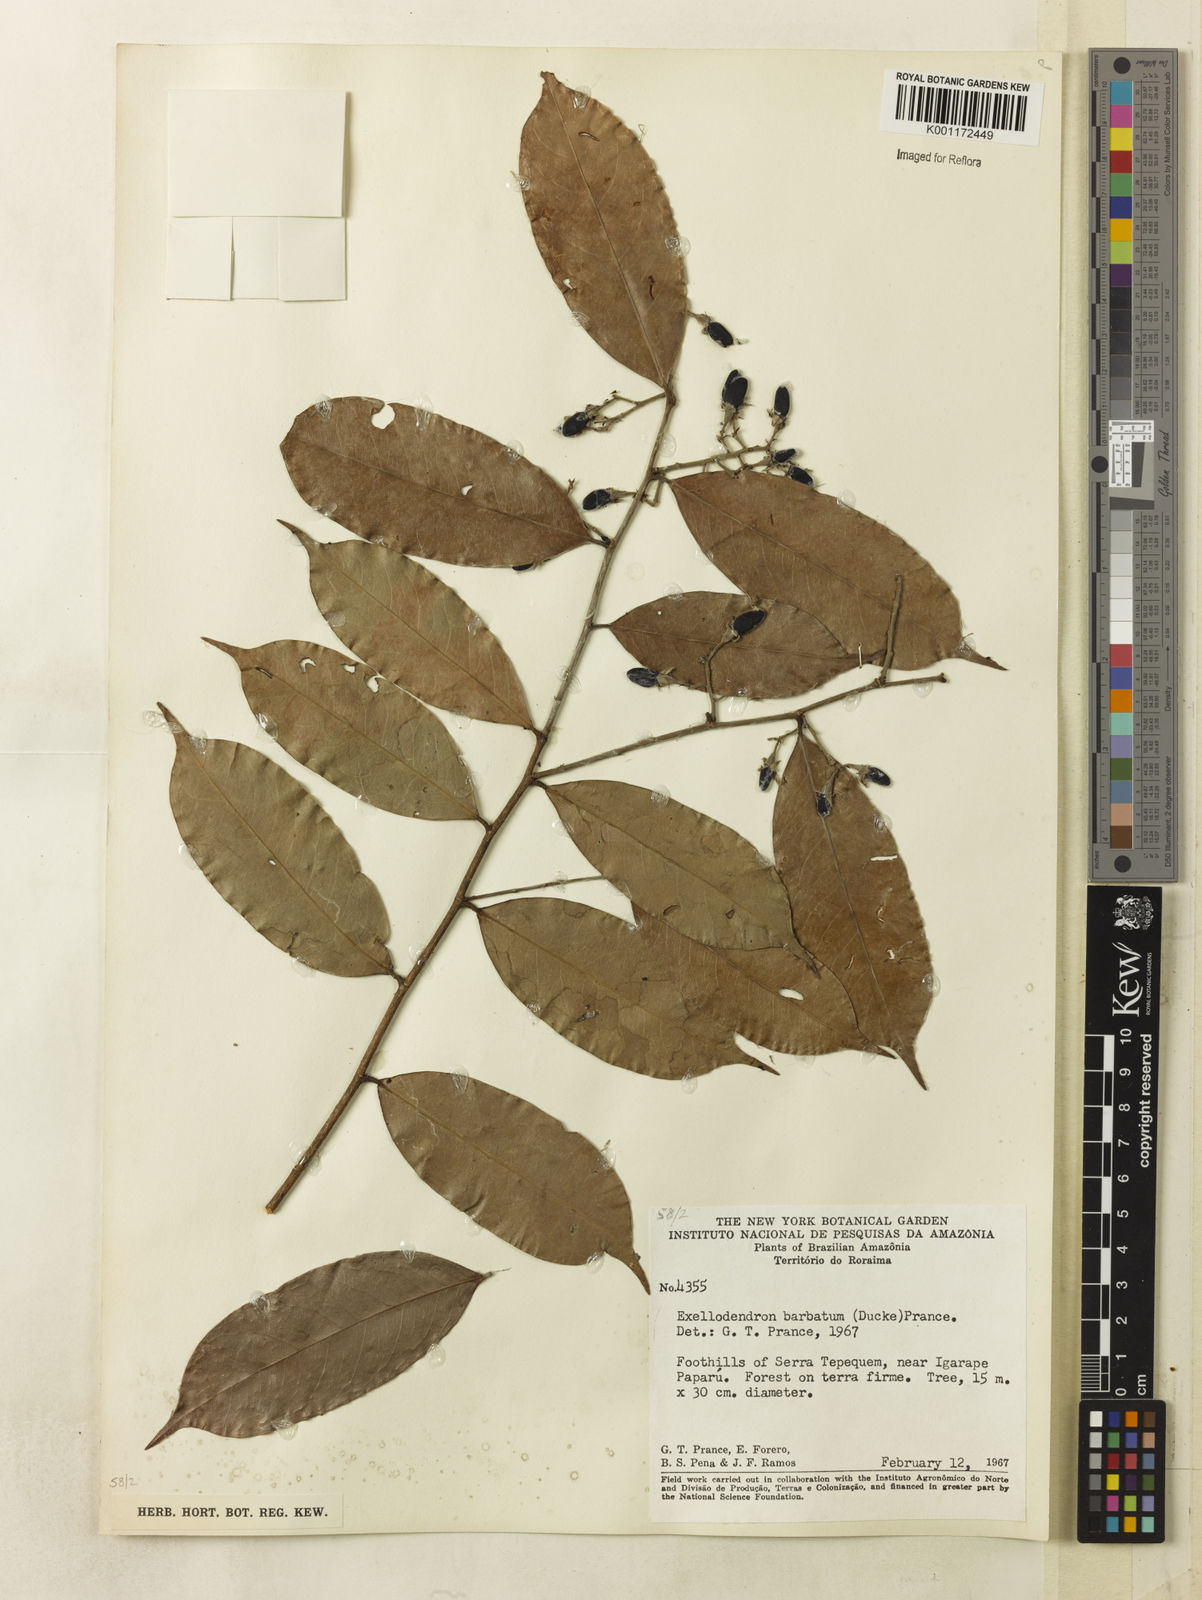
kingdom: Plantae
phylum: Tracheophyta
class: Magnoliopsida
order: Malpighiales
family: Chrysobalanaceae
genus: Atuna
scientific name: Atuna
